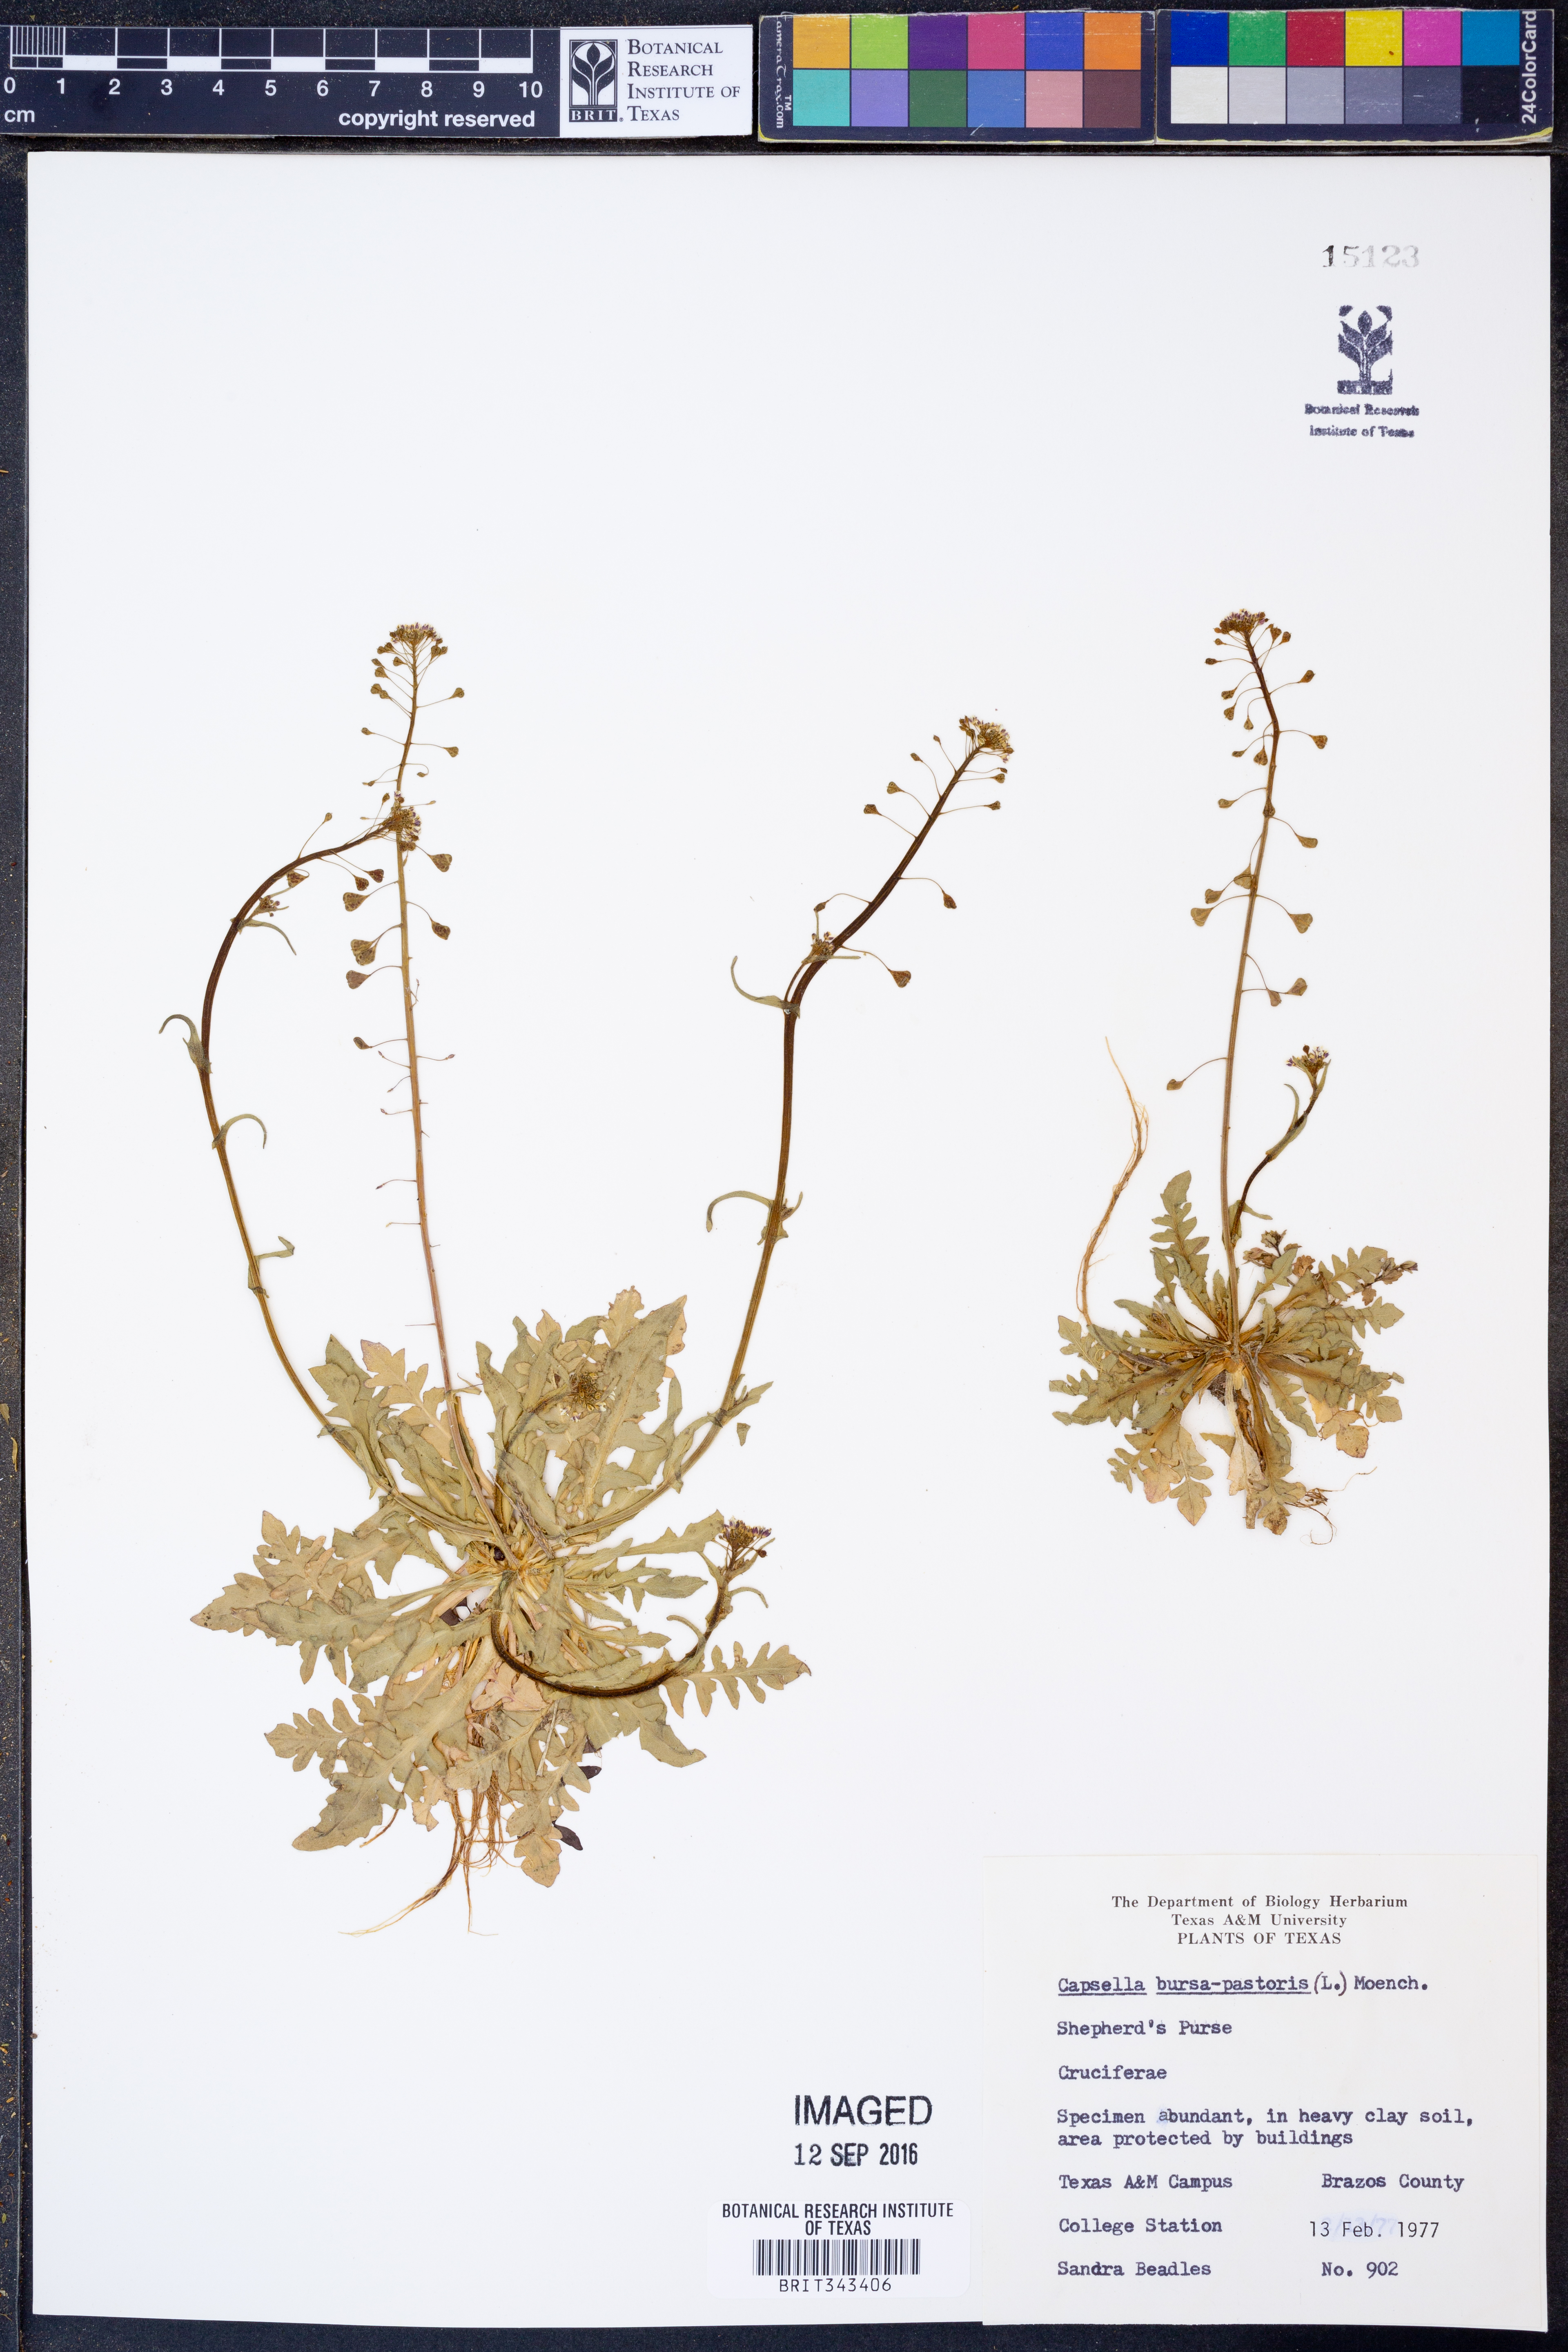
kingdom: Plantae
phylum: Tracheophyta
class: Magnoliopsida
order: Brassicales
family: Brassicaceae
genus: Capsella
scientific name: Capsella bursa-pastoris
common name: Shepherd's purse
